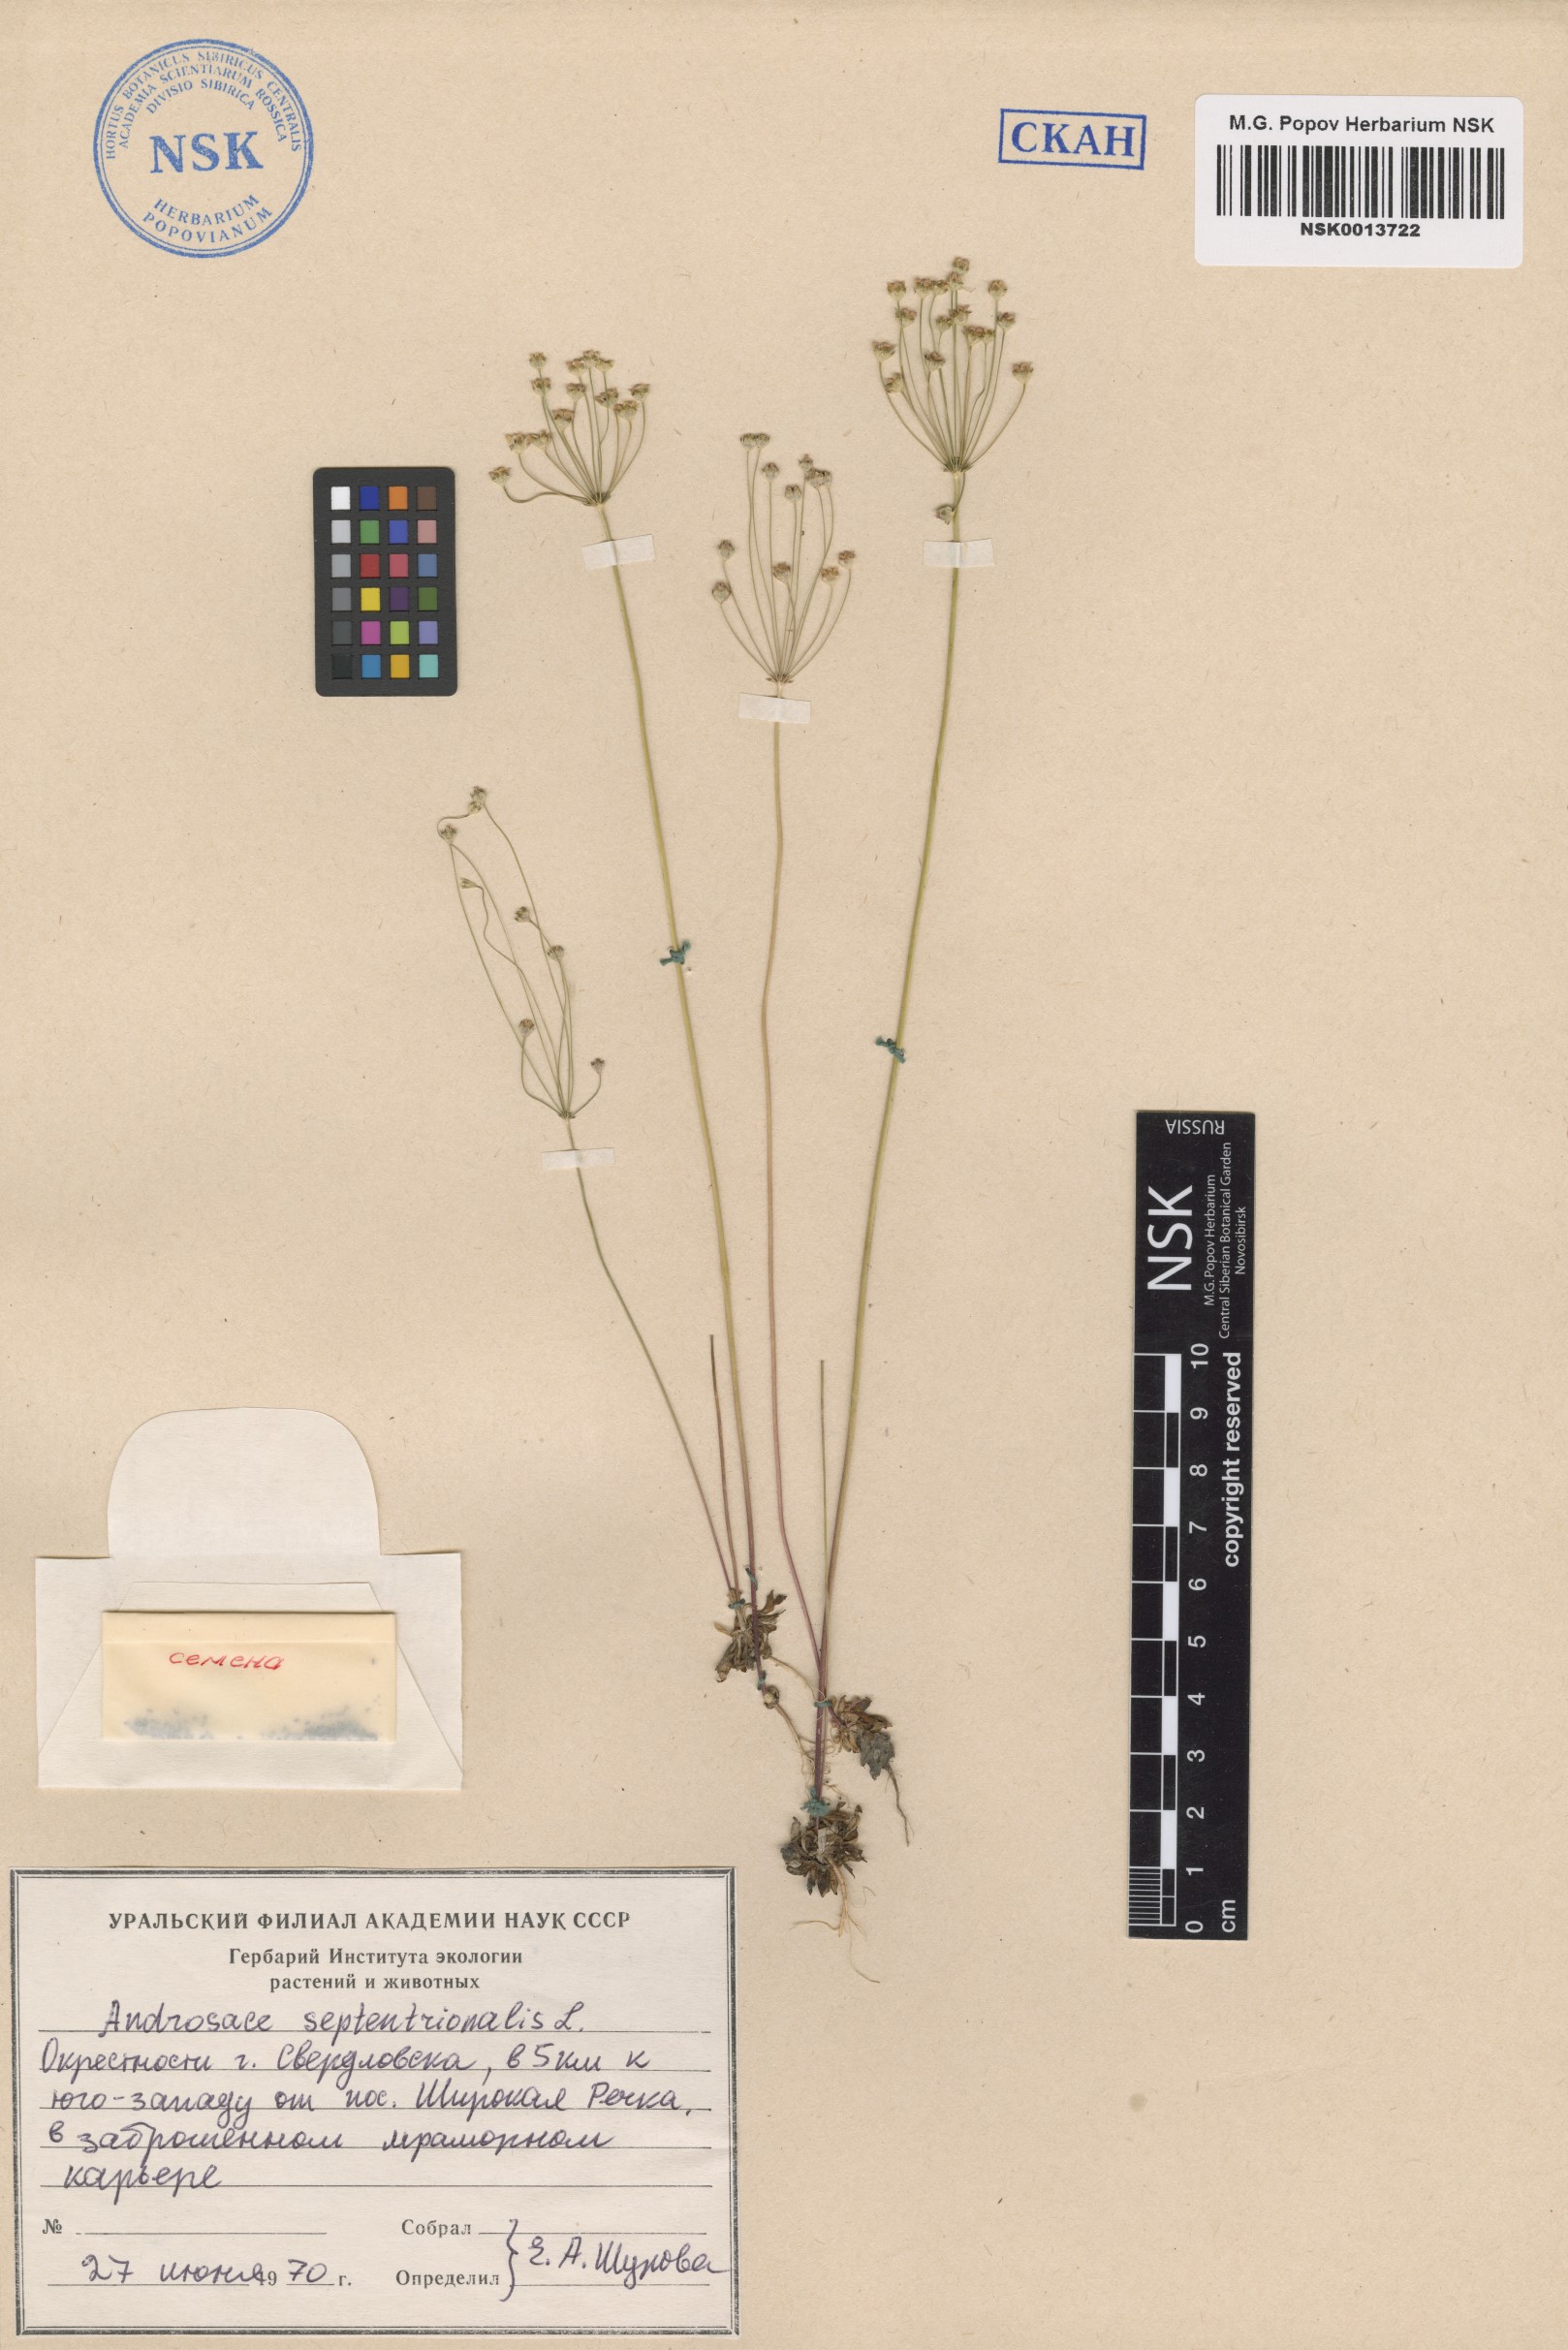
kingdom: Plantae
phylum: Tracheophyta
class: Magnoliopsida
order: Ericales
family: Primulaceae
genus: Androsace
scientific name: Androsace septentrionalis
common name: Hairy northern fairy-candelabra
